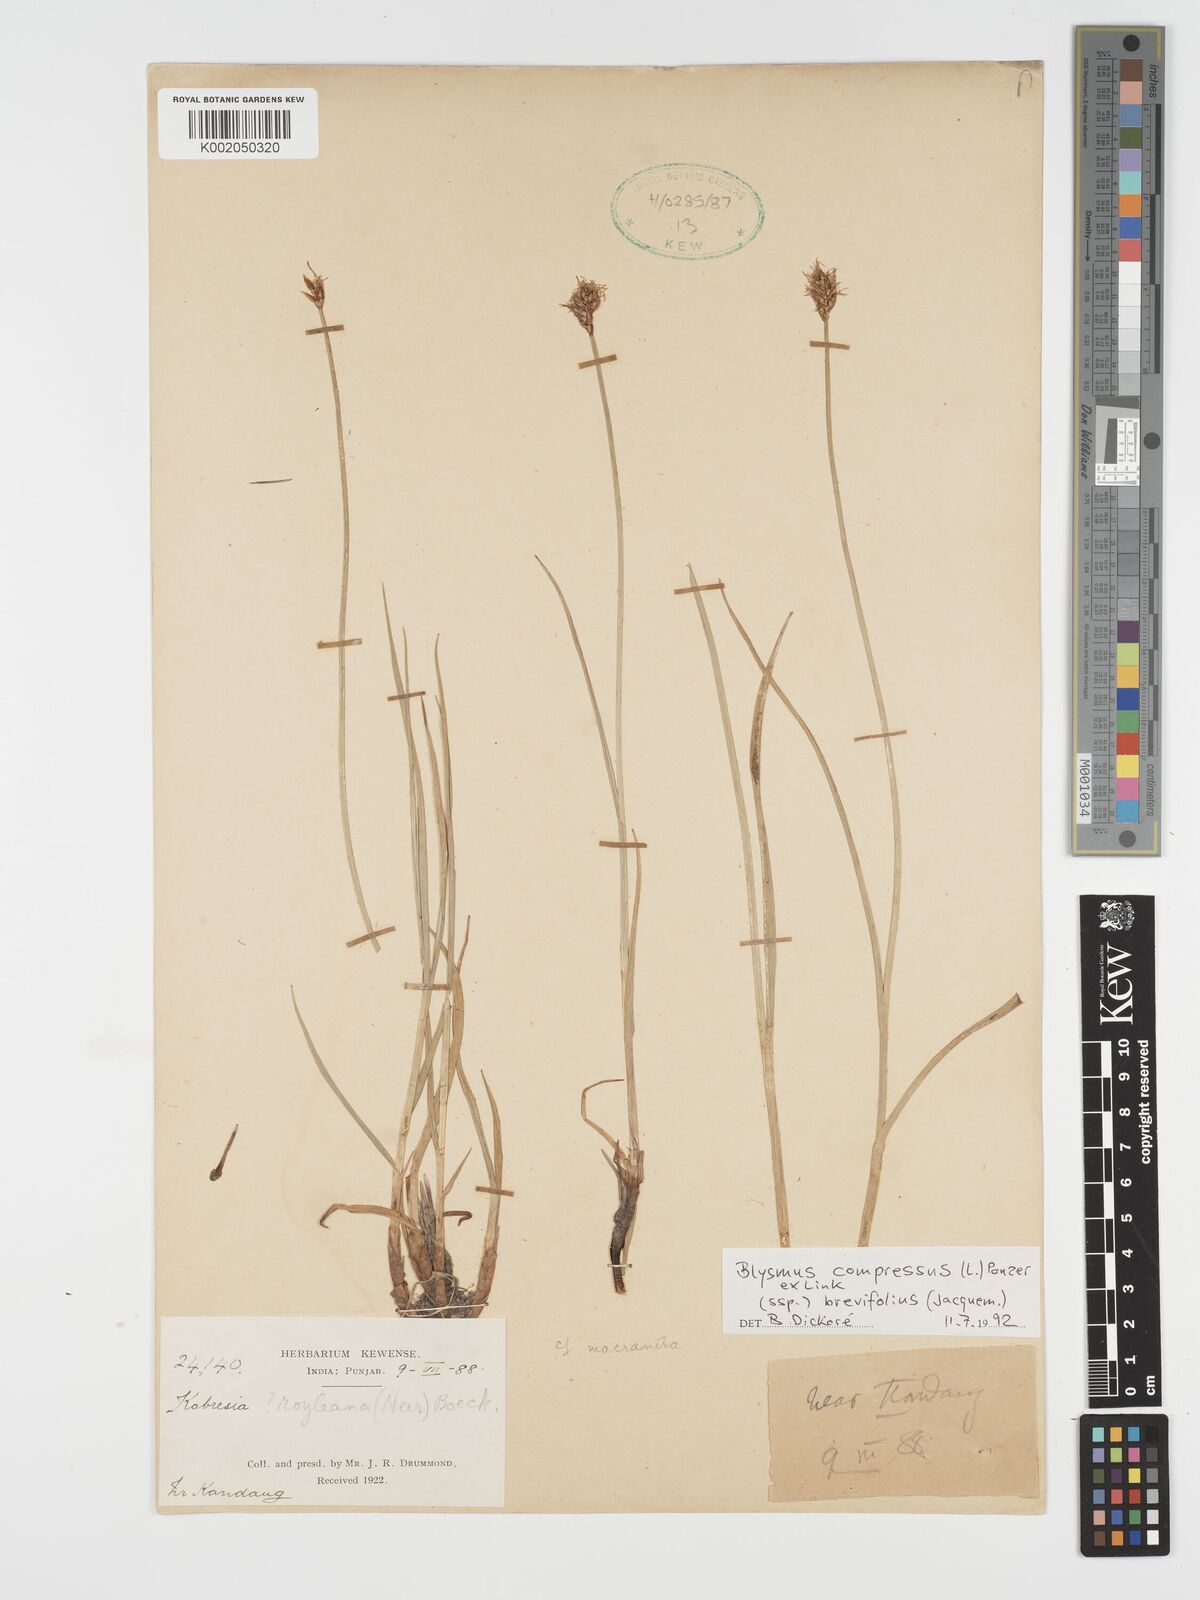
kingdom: Plantae
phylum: Tracheophyta
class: Liliopsida
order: Poales
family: Cyperaceae
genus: Blysmus
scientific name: Blysmus compressus
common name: Flat-sedge
